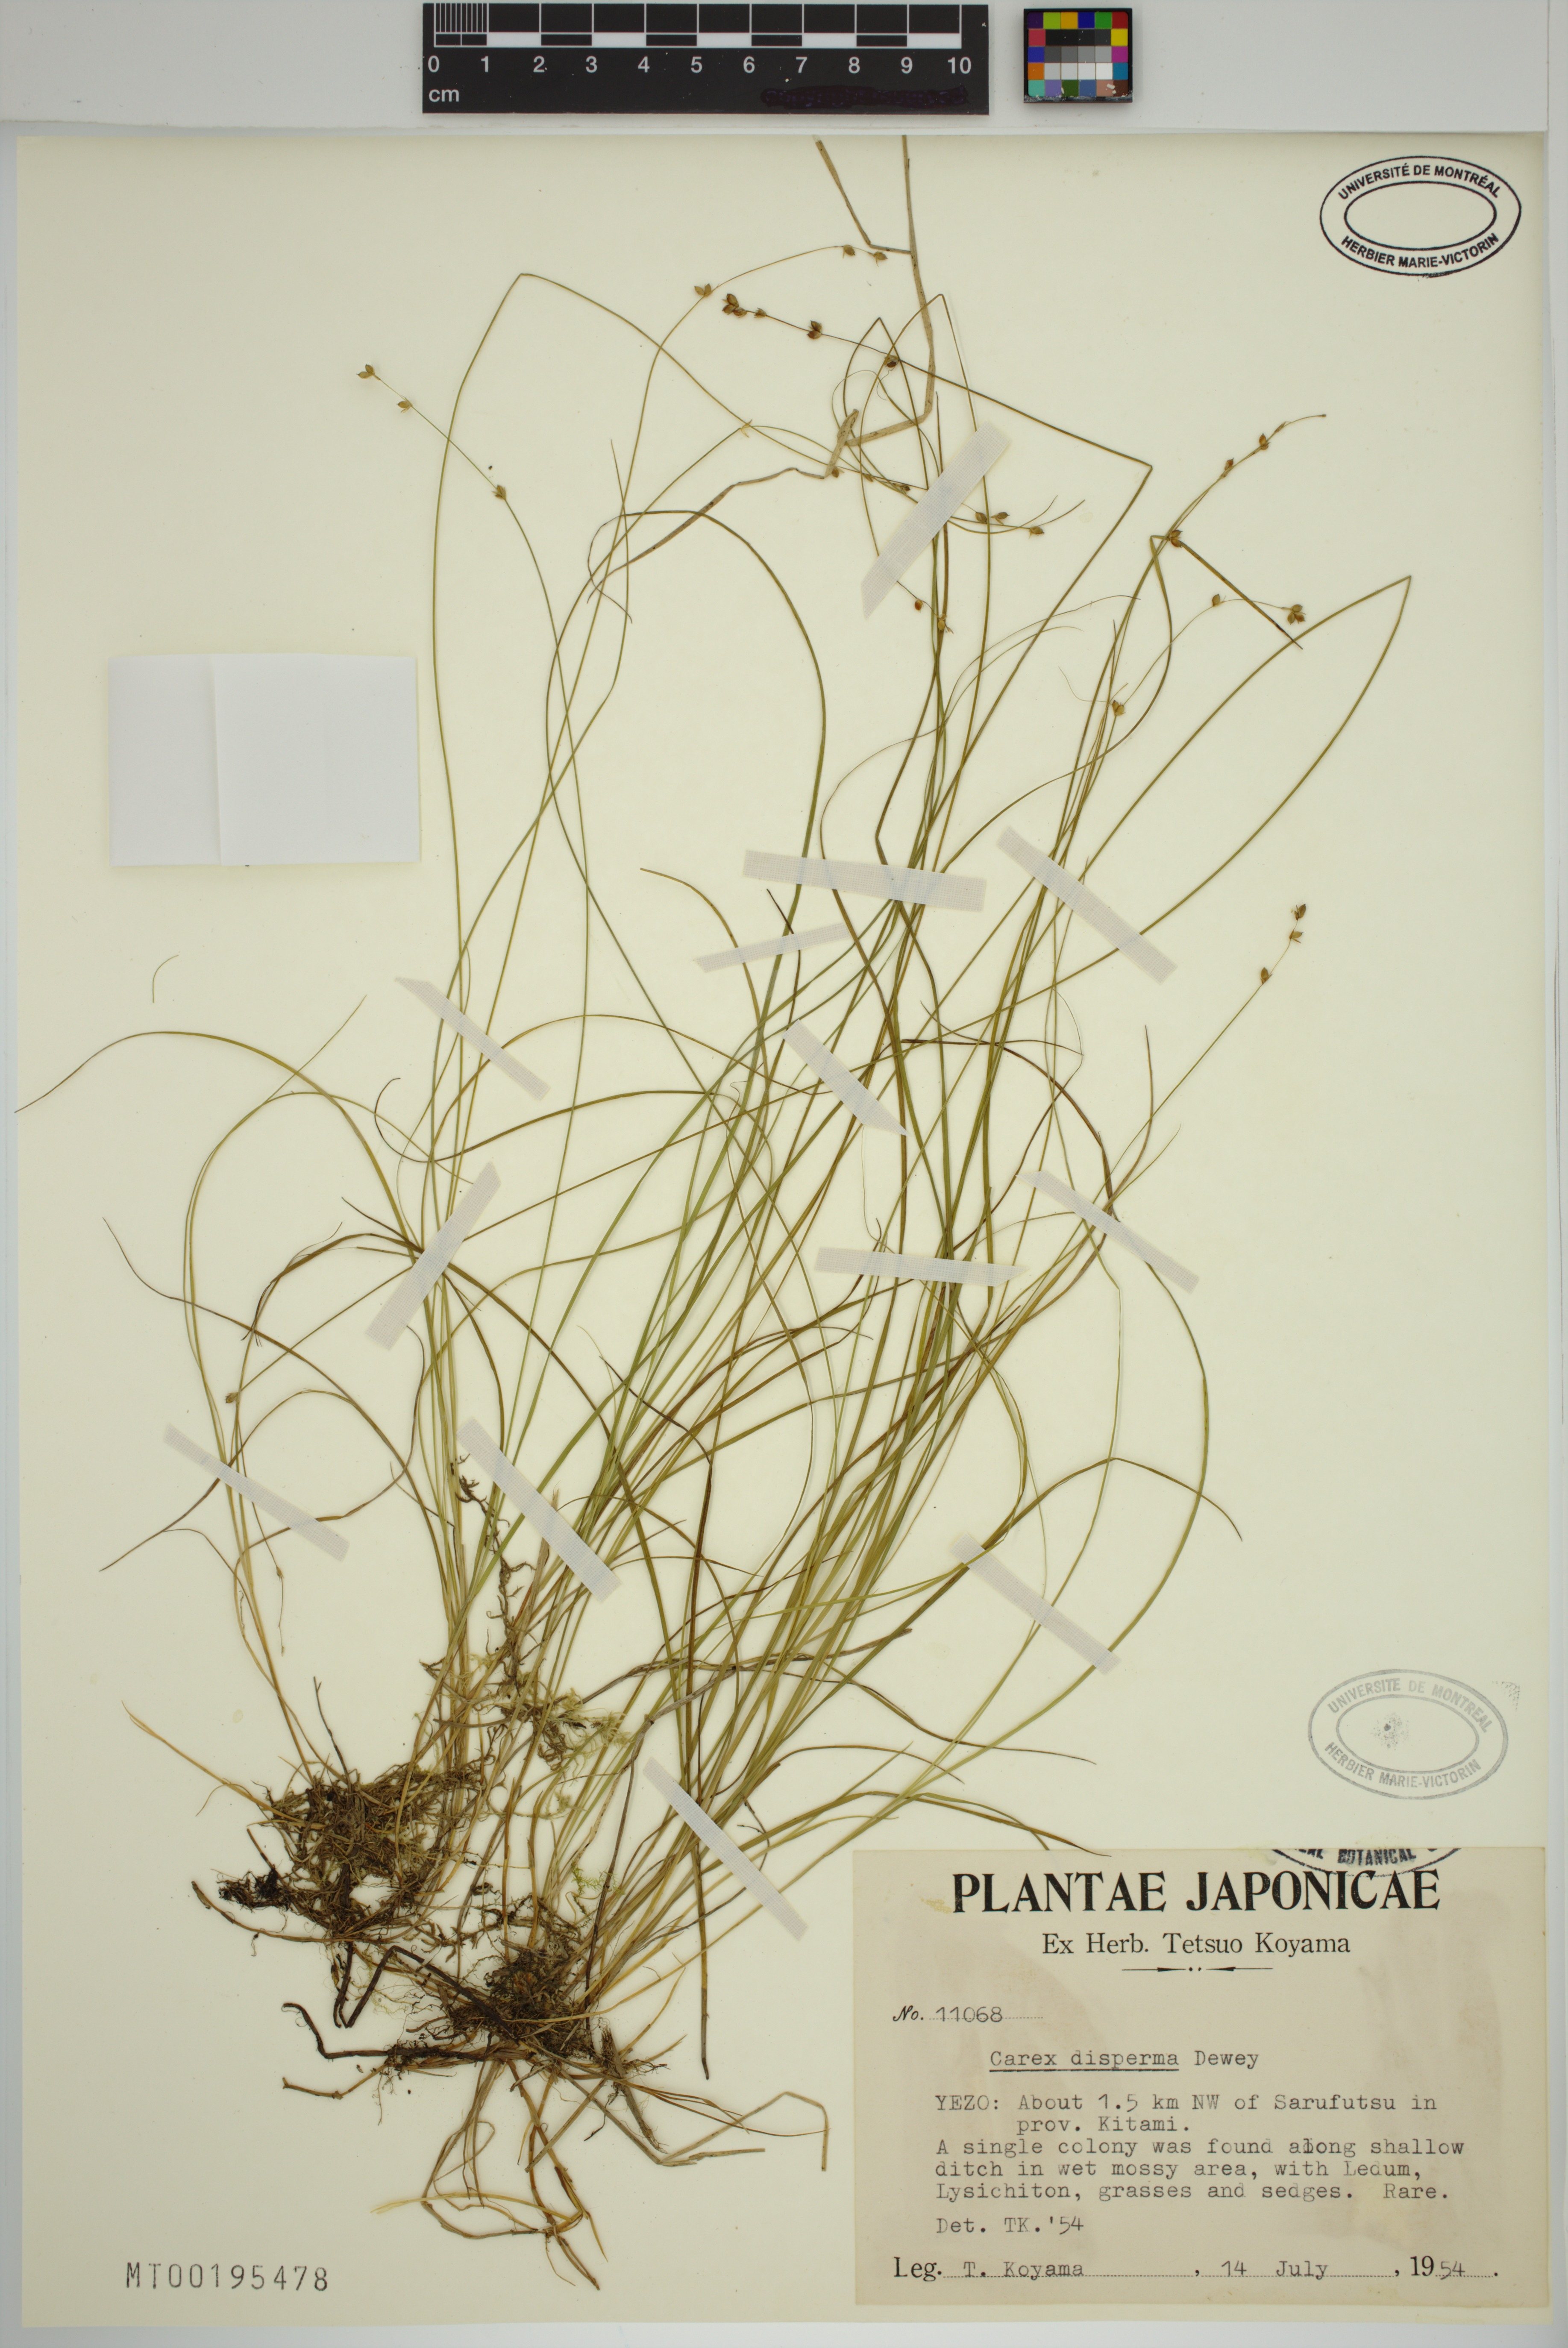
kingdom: Plantae
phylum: Tracheophyta
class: Liliopsida
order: Poales
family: Cyperaceae
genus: Carex
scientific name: Carex disperma
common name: Short-leaved sedge
